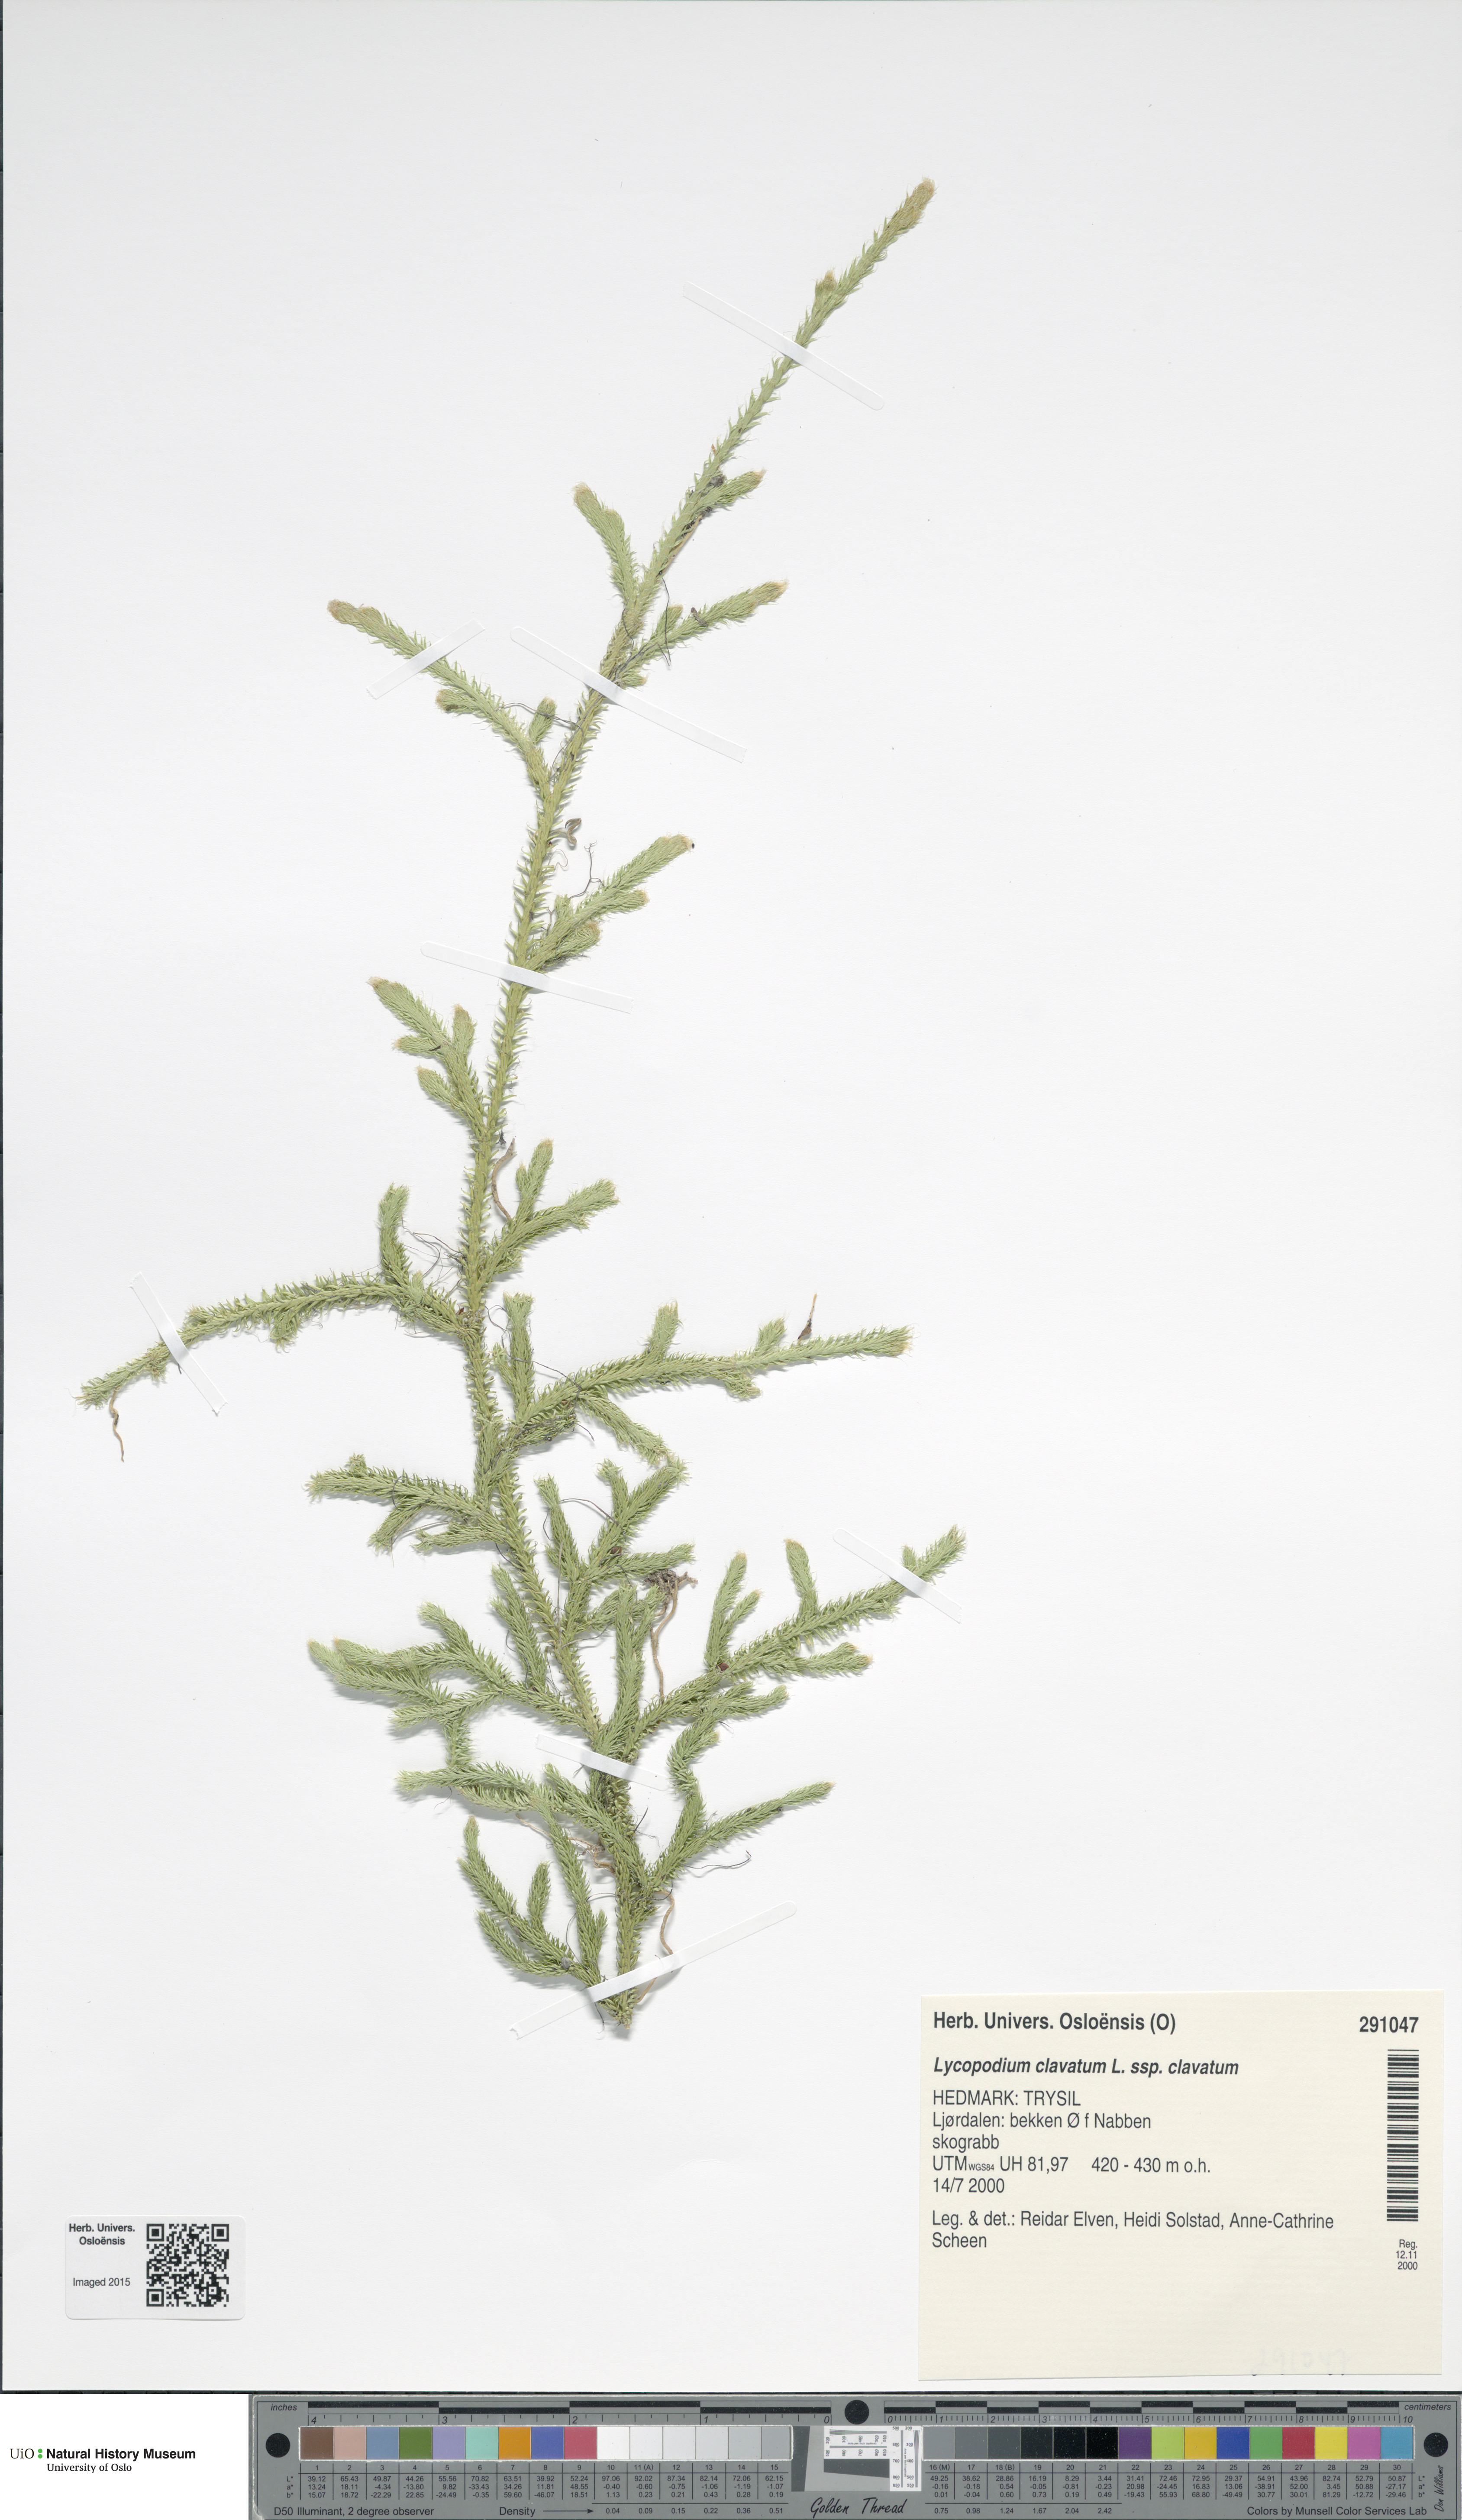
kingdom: Plantae
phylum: Tracheophyta
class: Lycopodiopsida
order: Lycopodiales
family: Lycopodiaceae
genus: Lycopodium
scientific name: Lycopodium clavatum
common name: Stag's-horn clubmoss
